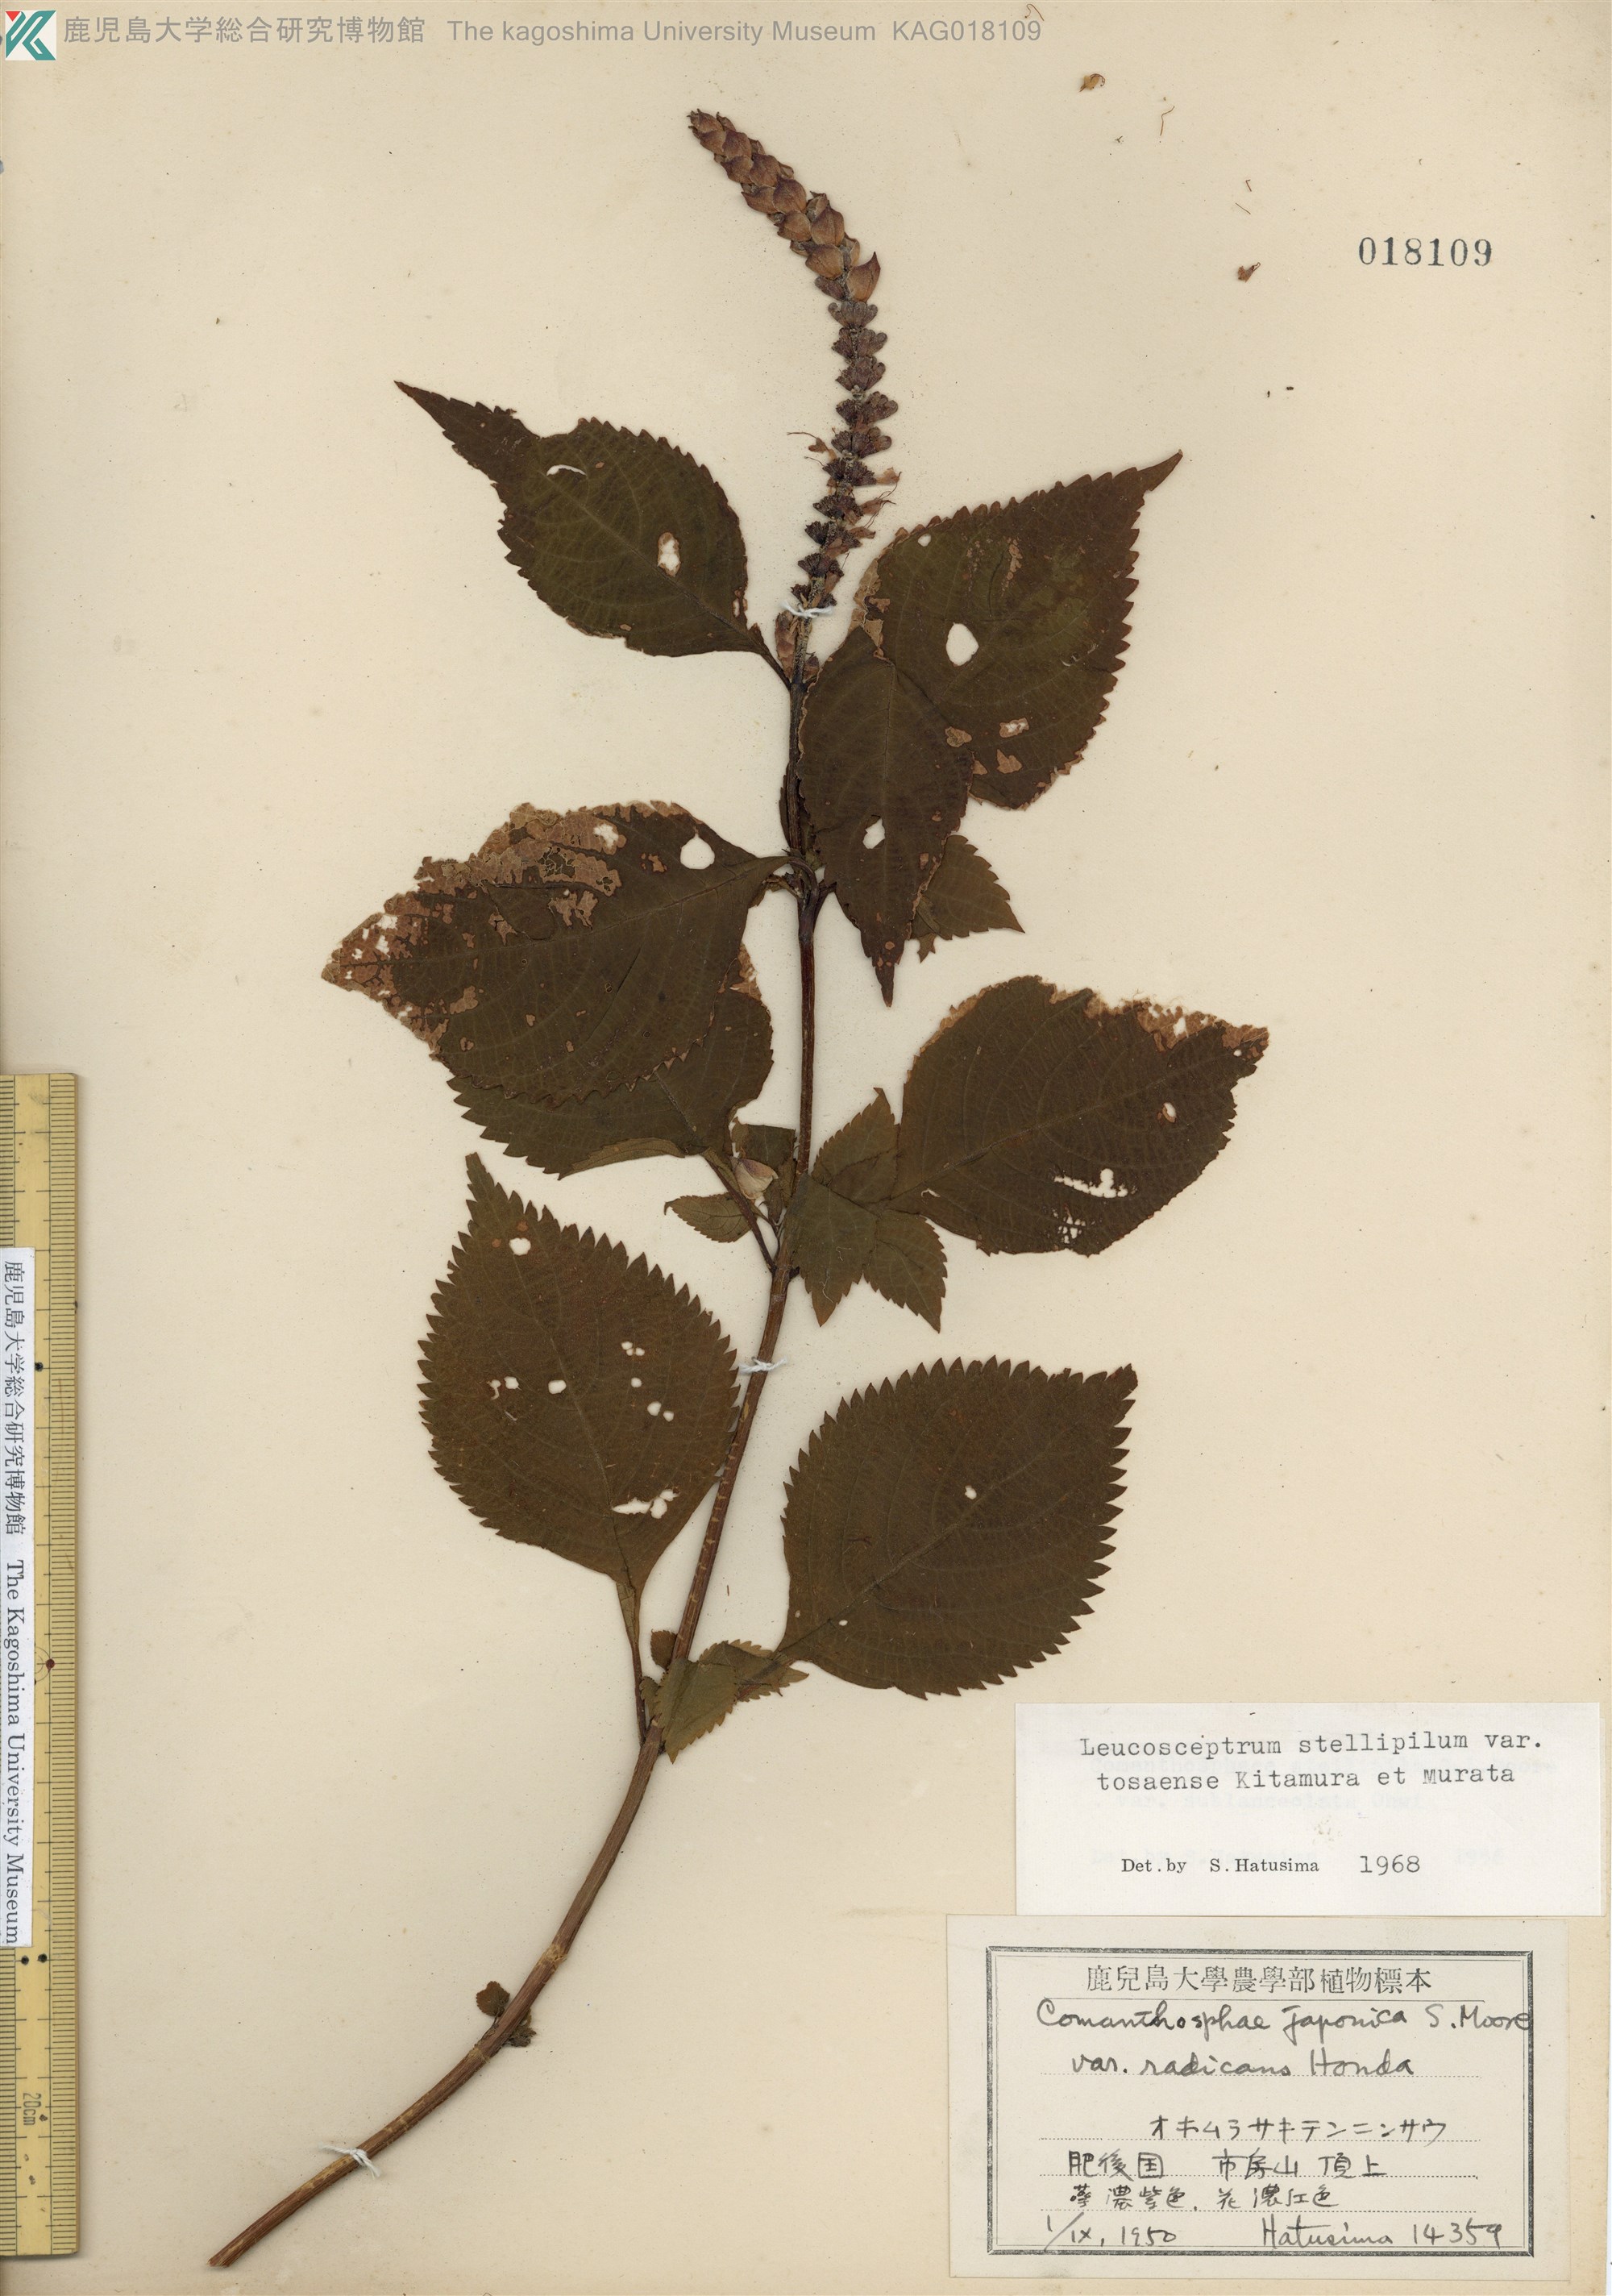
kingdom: Plantae
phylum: Tracheophyta
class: Magnoliopsida
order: Lamiales
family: Lamiaceae
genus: Comanthosphace
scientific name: Comanthosphace japonica
